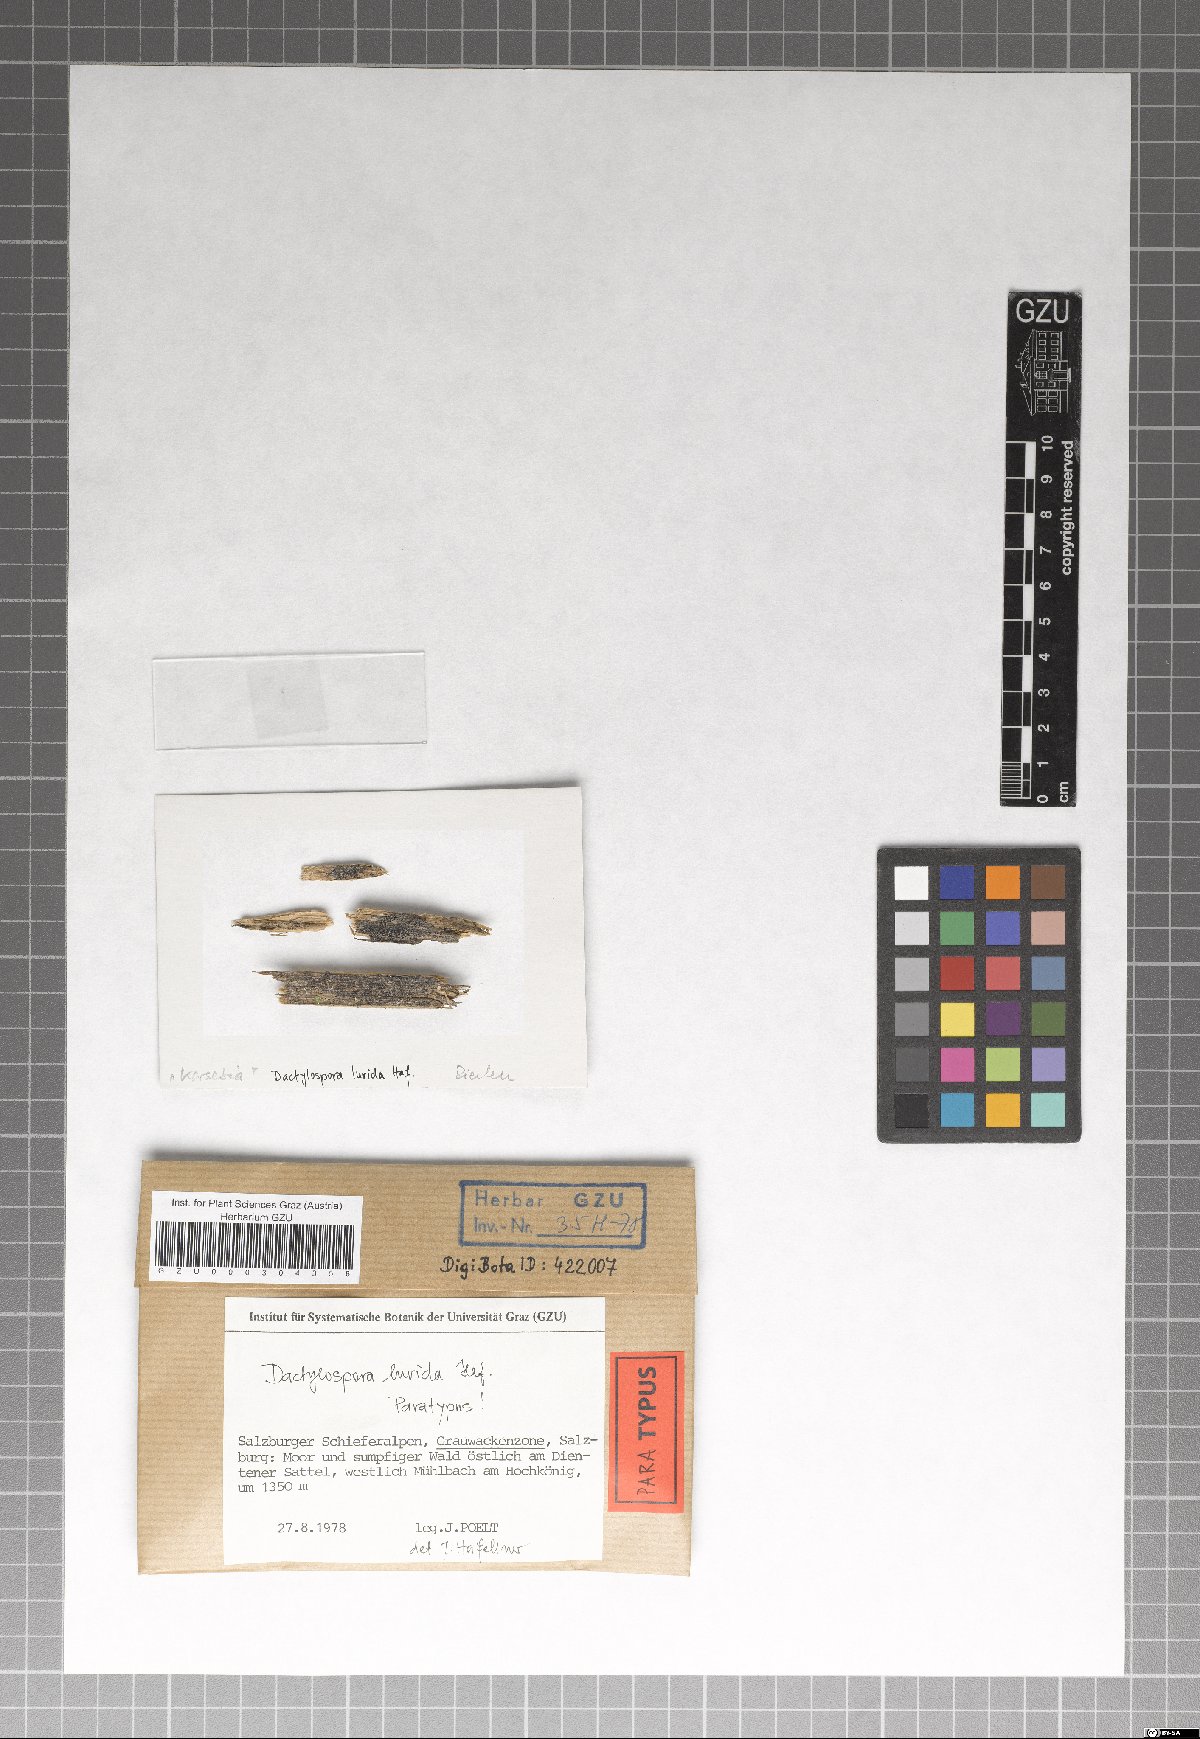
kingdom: Fungi
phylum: Ascomycota
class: Eurotiomycetes
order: Sclerococcales
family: Sclerococcaceae
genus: Sclerococcum
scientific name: Sclerococcum luridum
